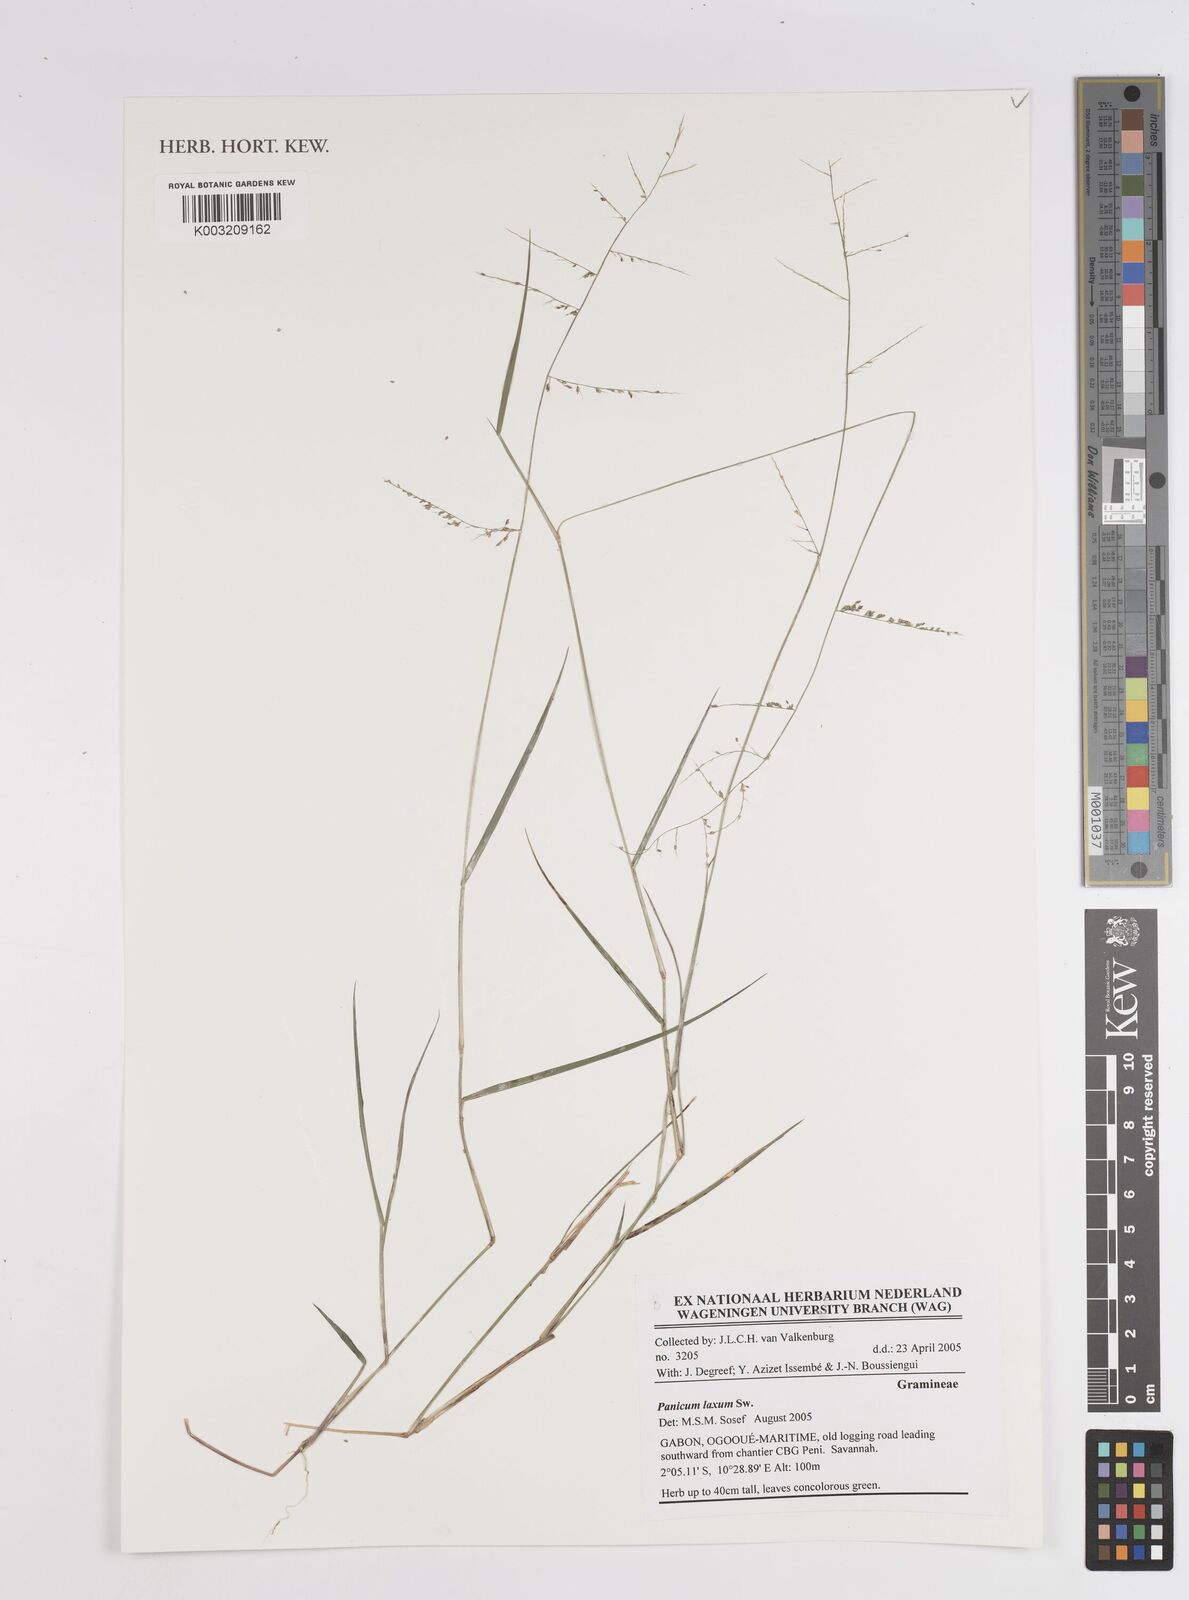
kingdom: Plantae
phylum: Tracheophyta
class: Liliopsida
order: Poales
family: Poaceae
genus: Steinchisma
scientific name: Steinchisma laxum
